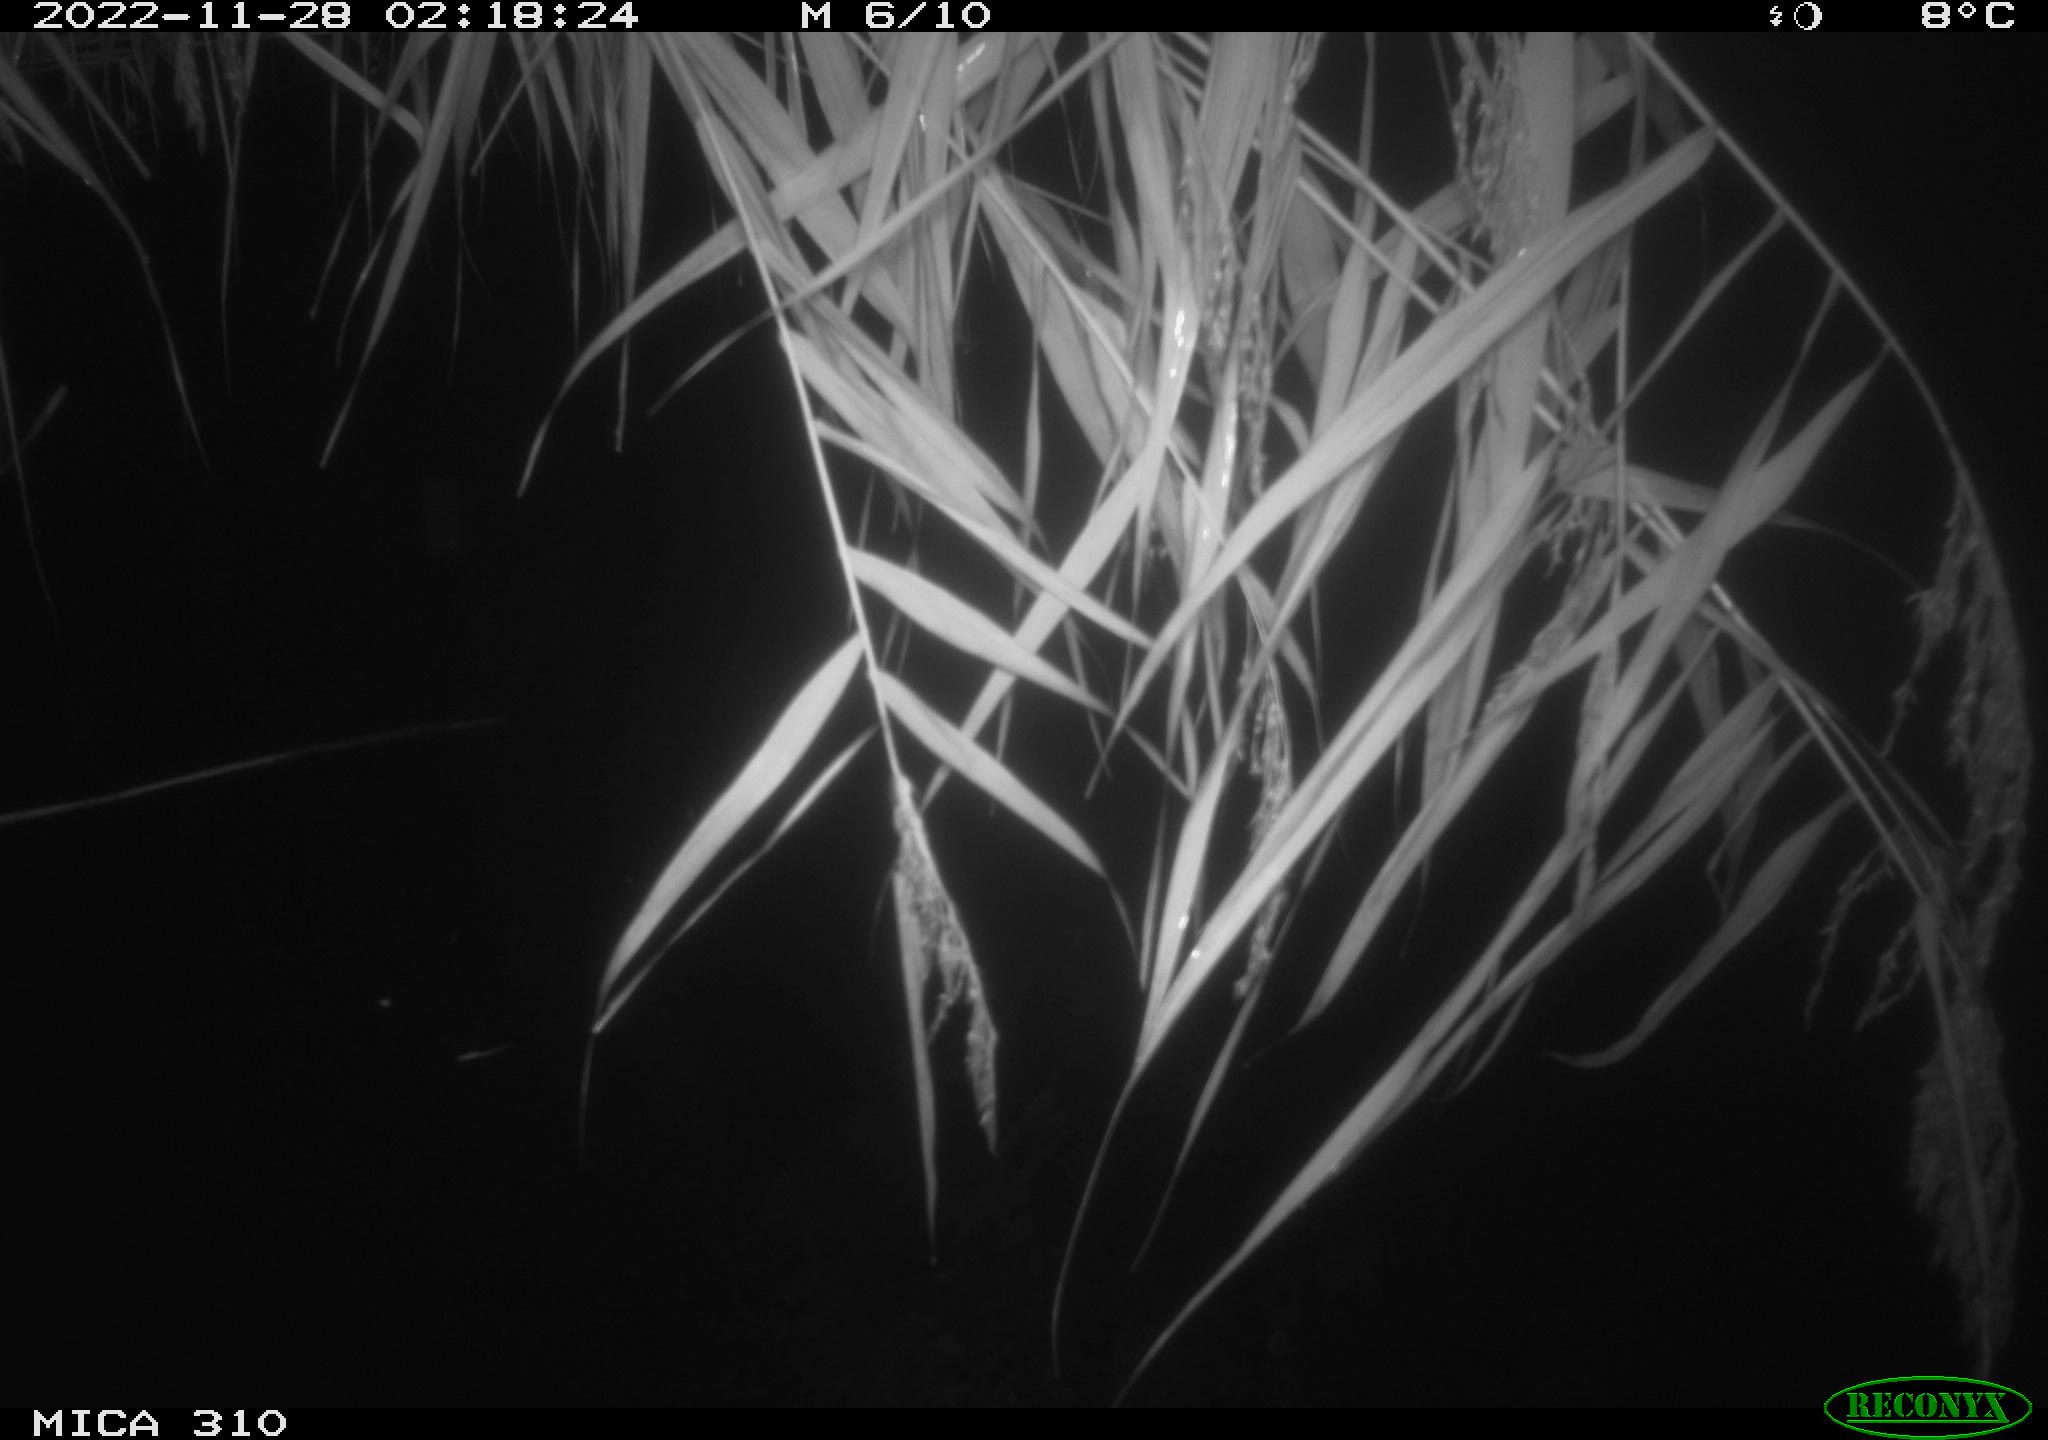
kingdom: Animalia
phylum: Chordata
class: Mammalia
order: Rodentia
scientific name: Rodentia
